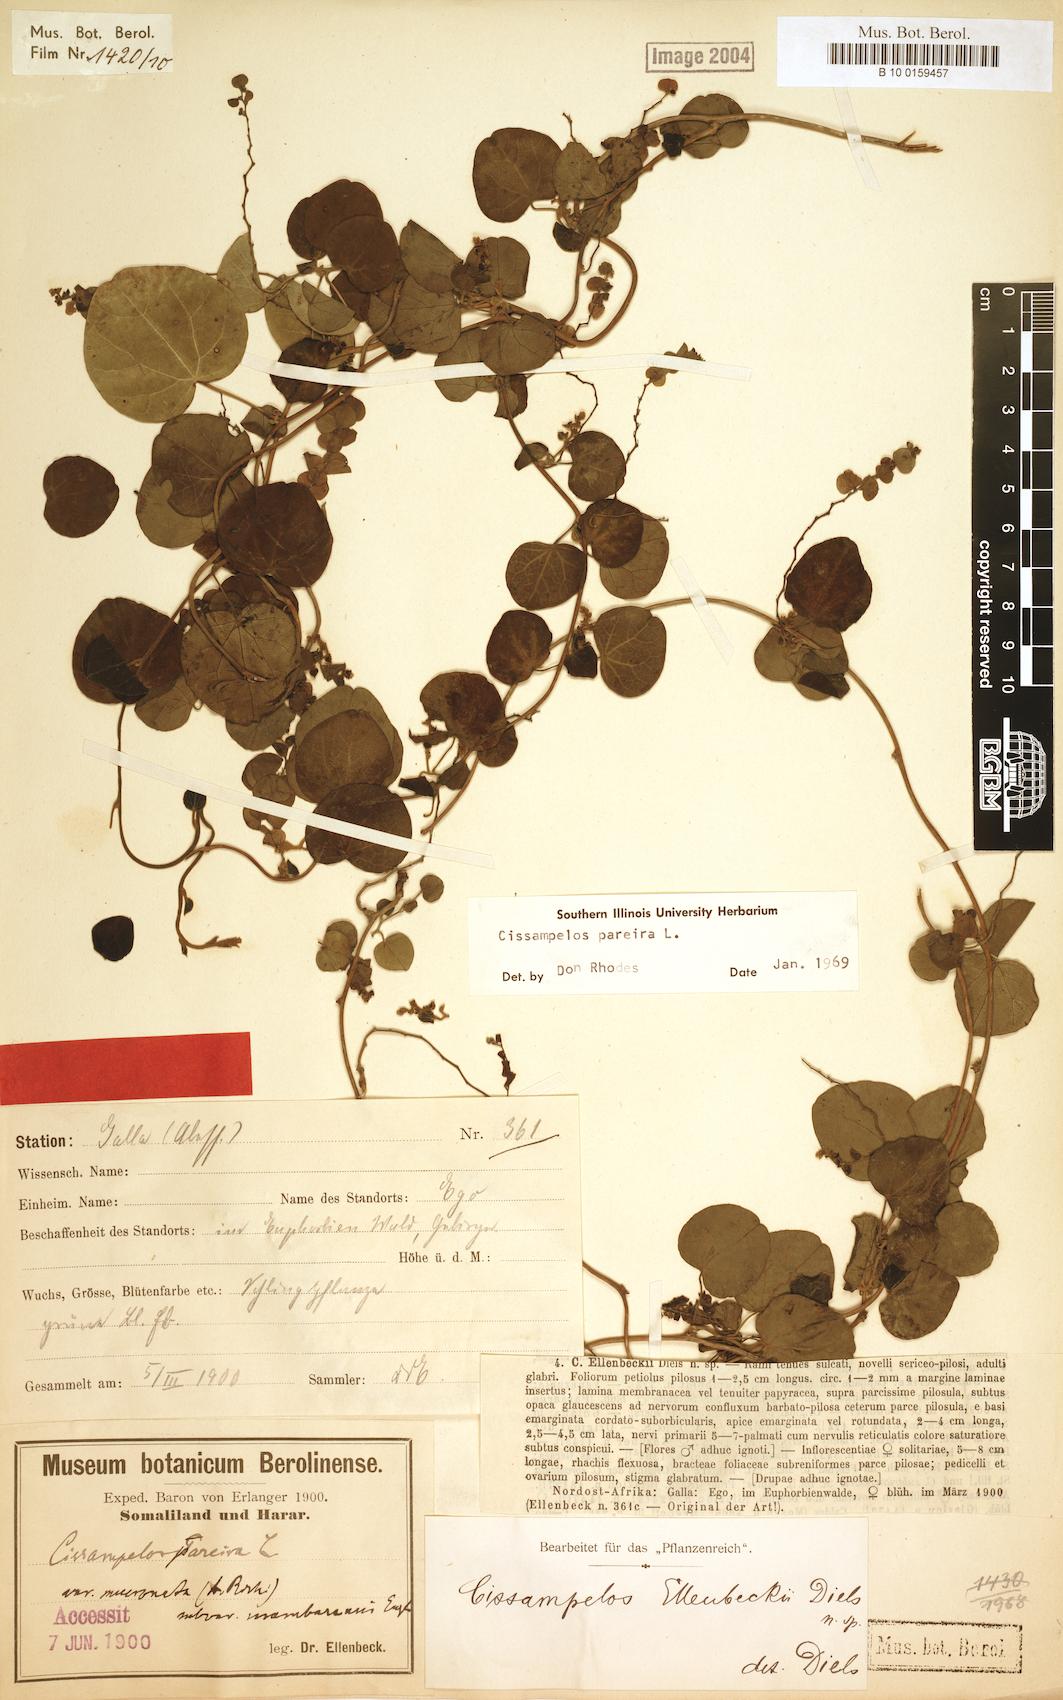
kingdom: Plantae
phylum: Tracheophyta
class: Magnoliopsida
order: Ranunculales
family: Menispermaceae
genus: Cissampelos
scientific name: Cissampelos pareira
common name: Velvetleaf
